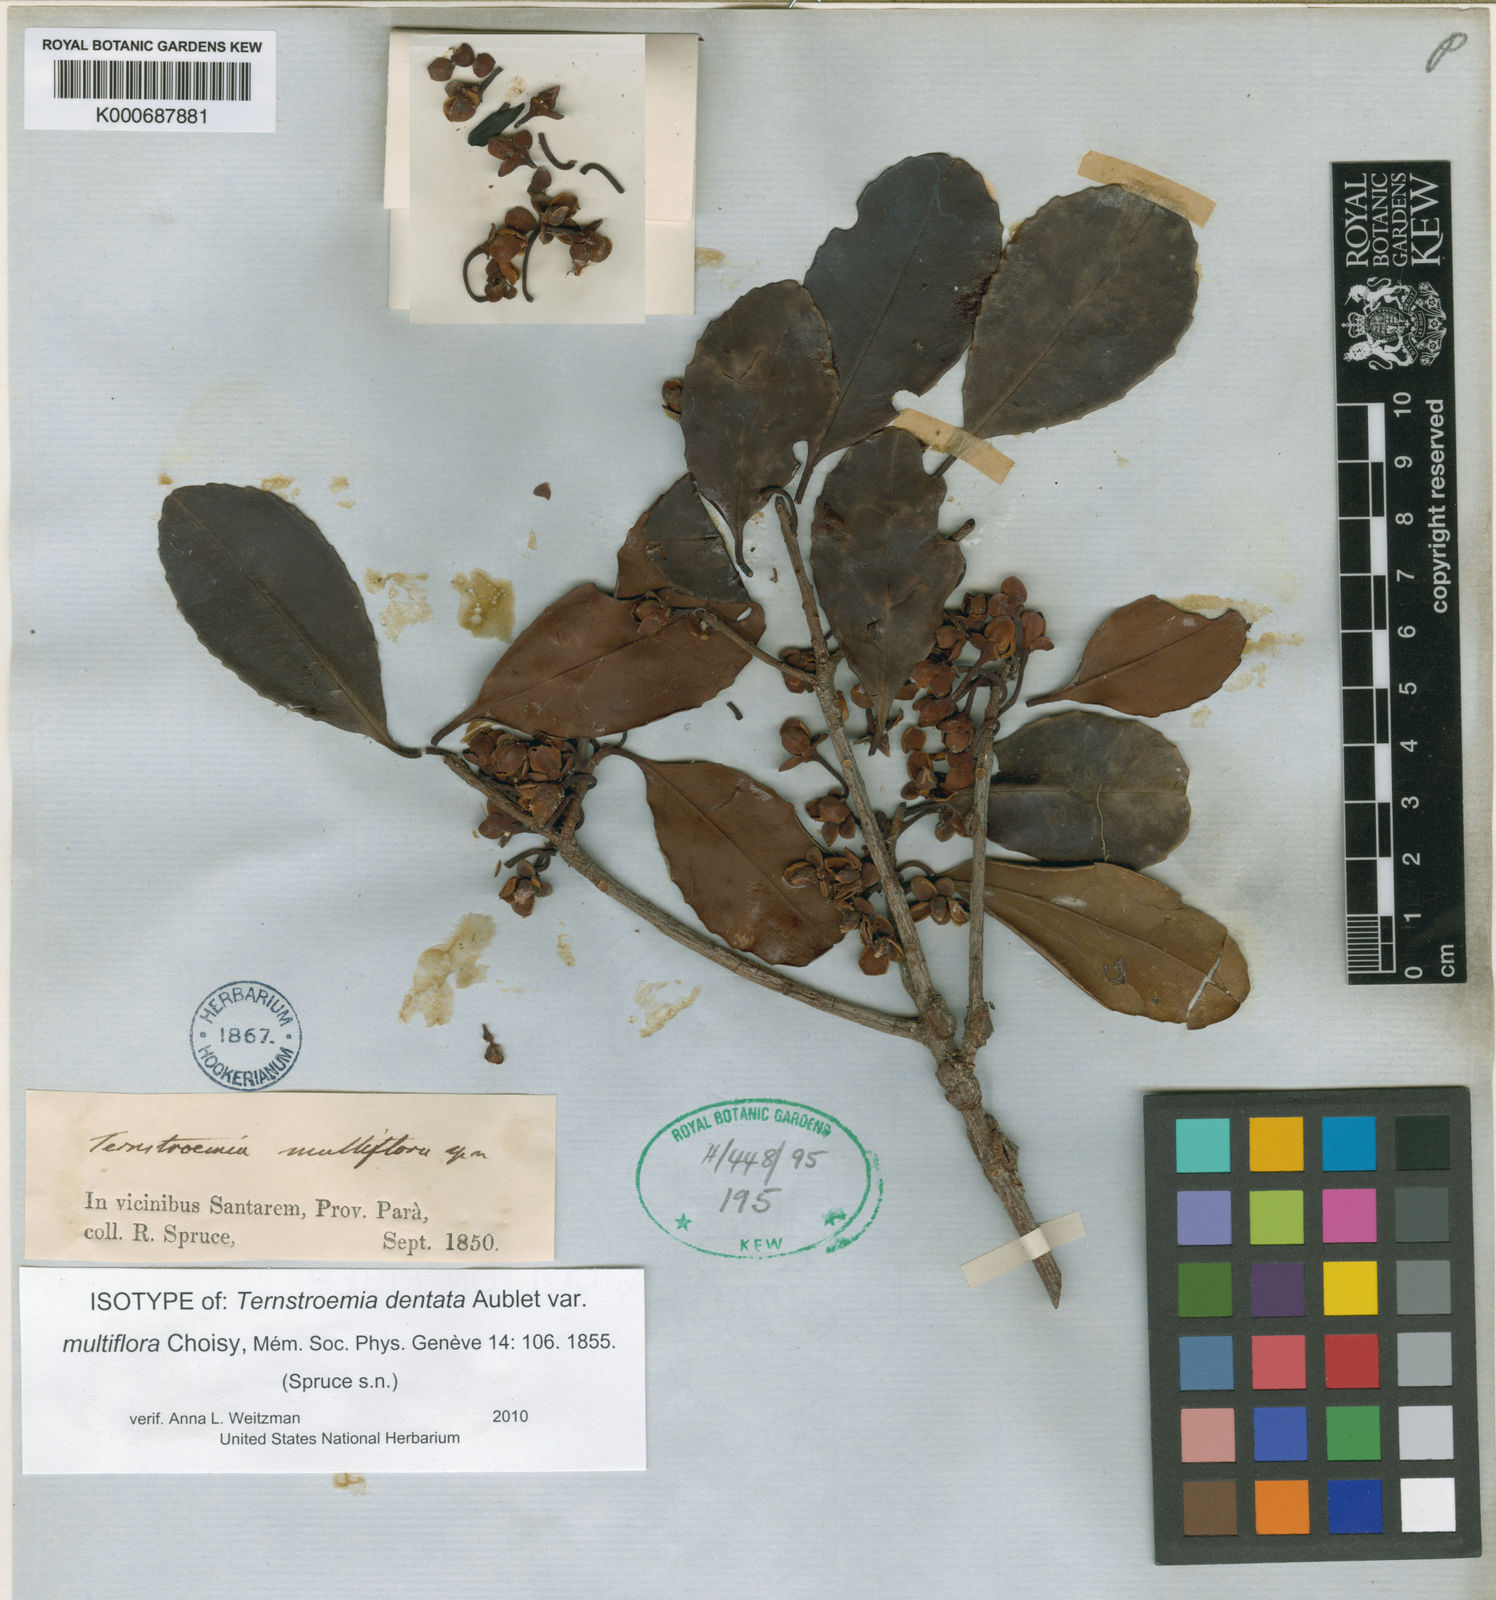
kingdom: Plantae
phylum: Tracheophyta
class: Magnoliopsida
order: Ericales
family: Pentaphylacaceae
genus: Ternstroemia
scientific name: Ternstroemia dentata
